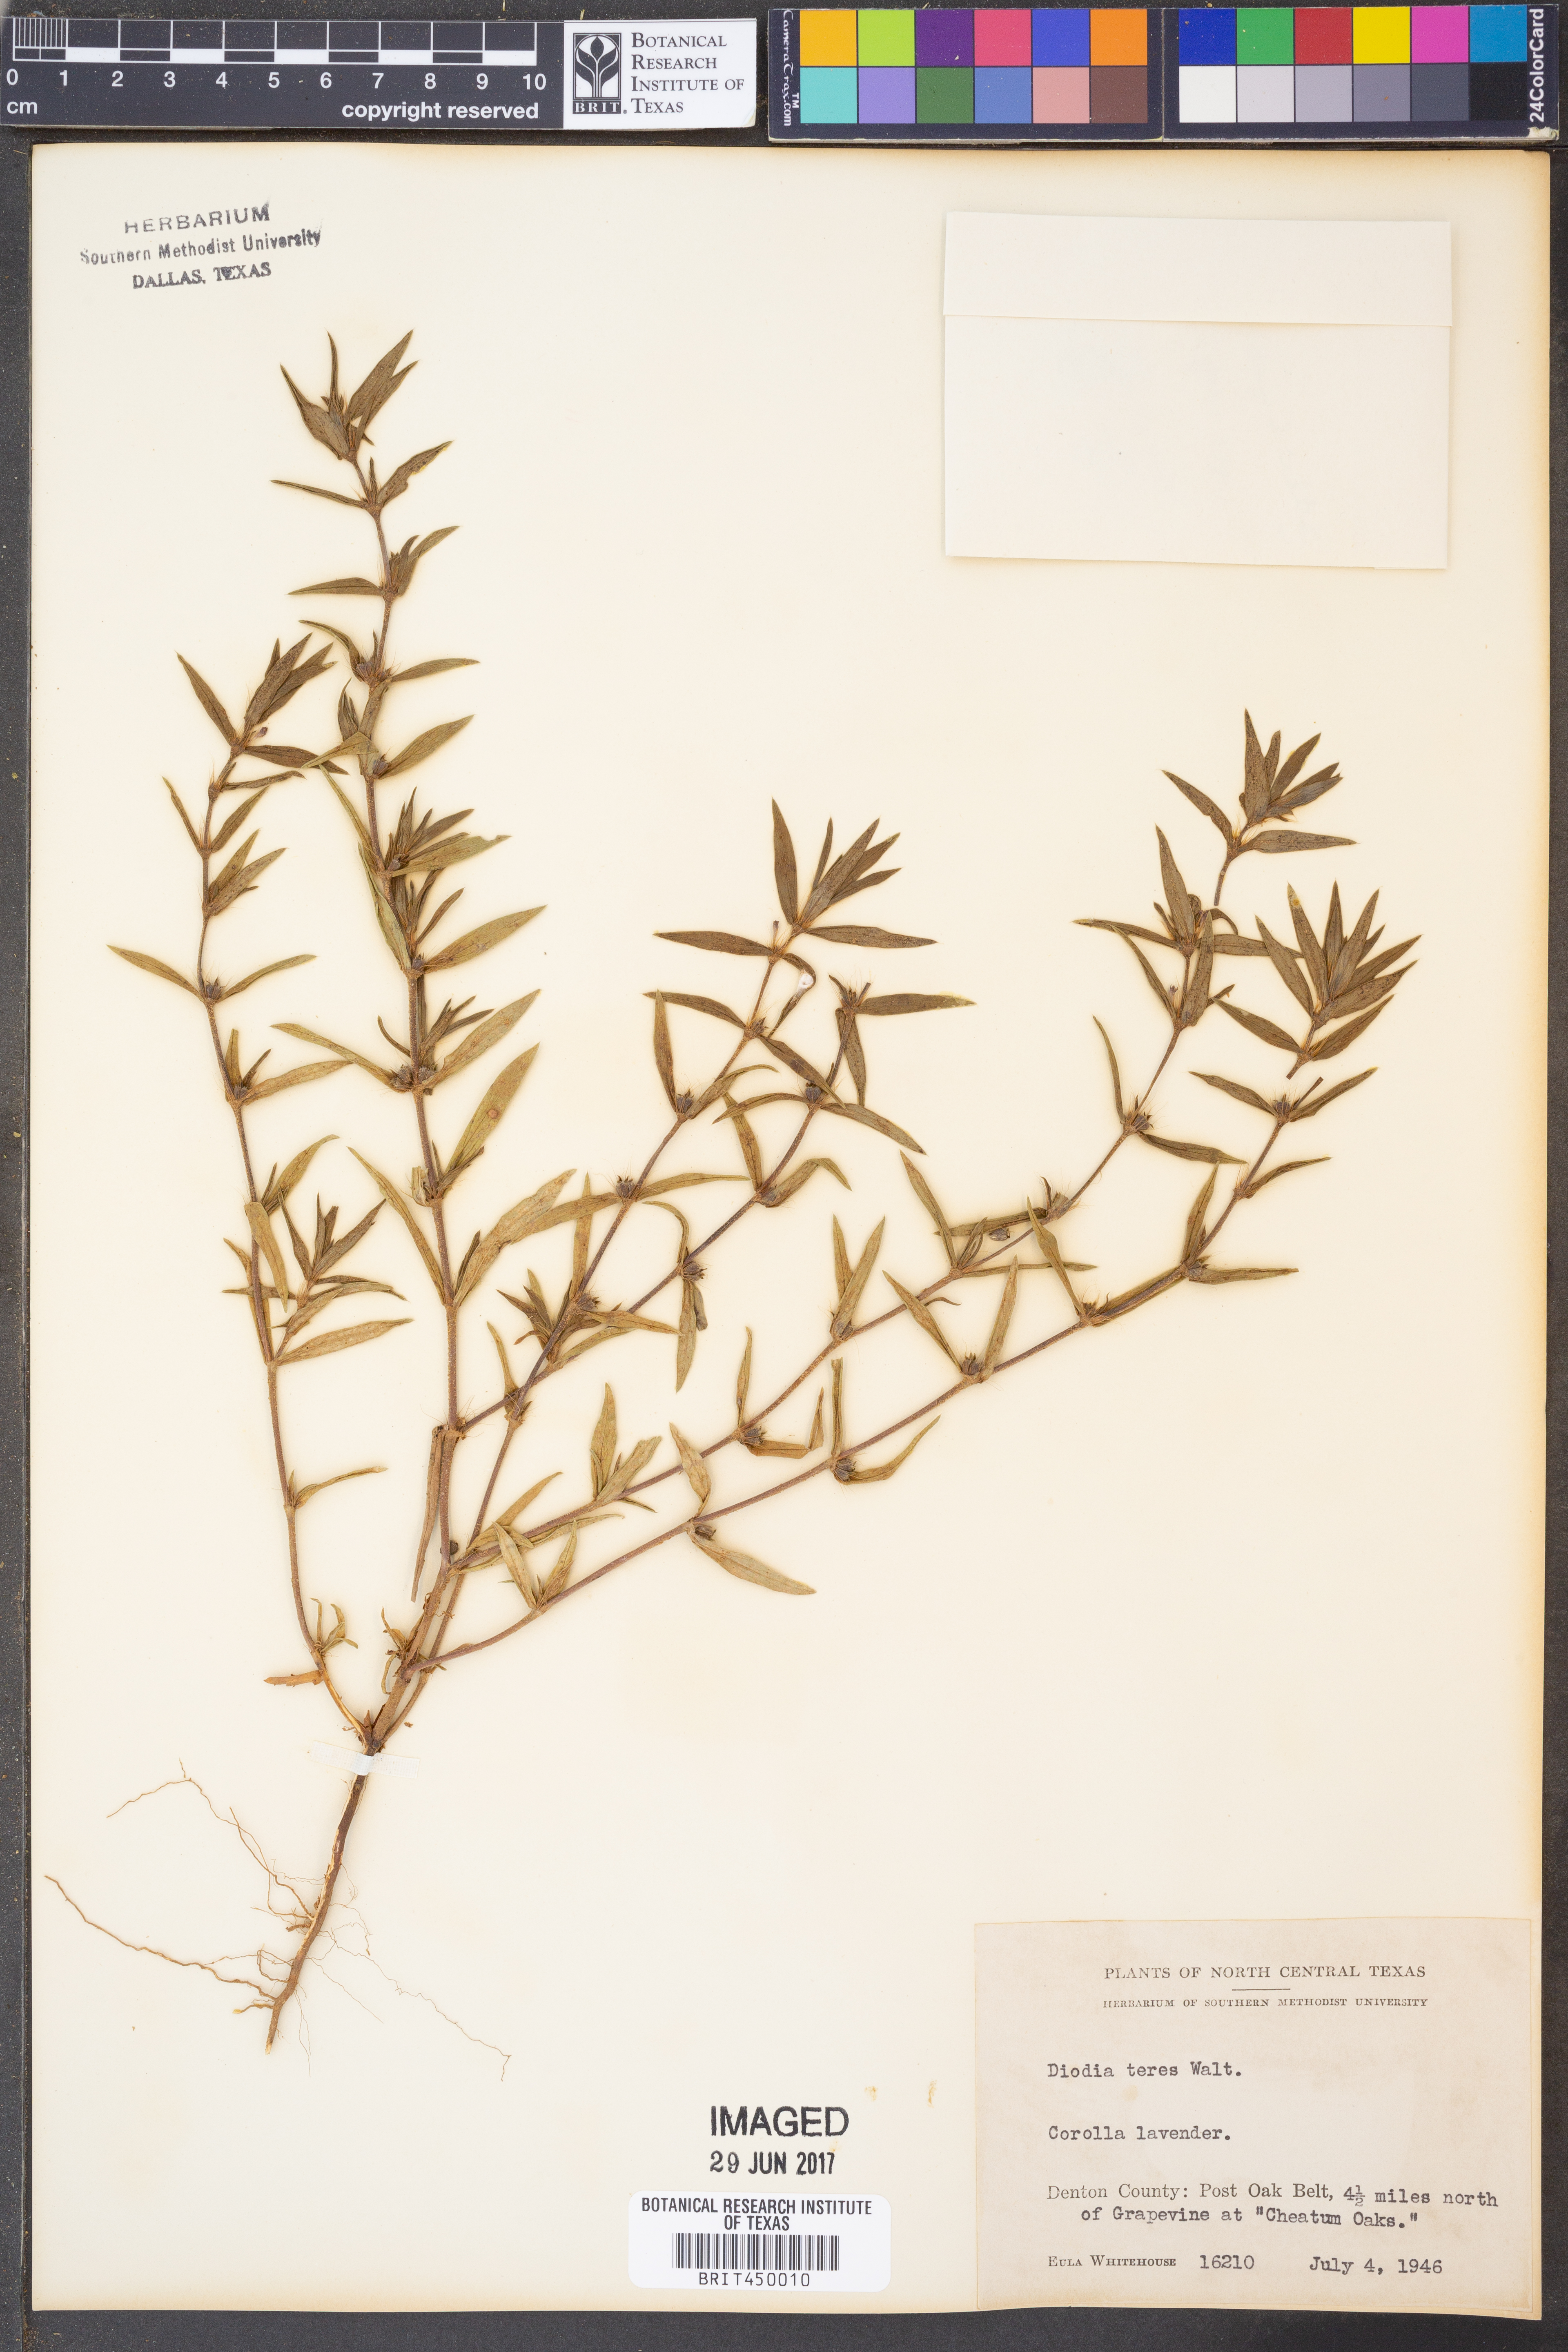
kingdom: Plantae
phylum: Tracheophyta
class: Magnoliopsida
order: Gentianales
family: Rubiaceae
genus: Hexasepalum
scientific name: Hexasepalum teres
